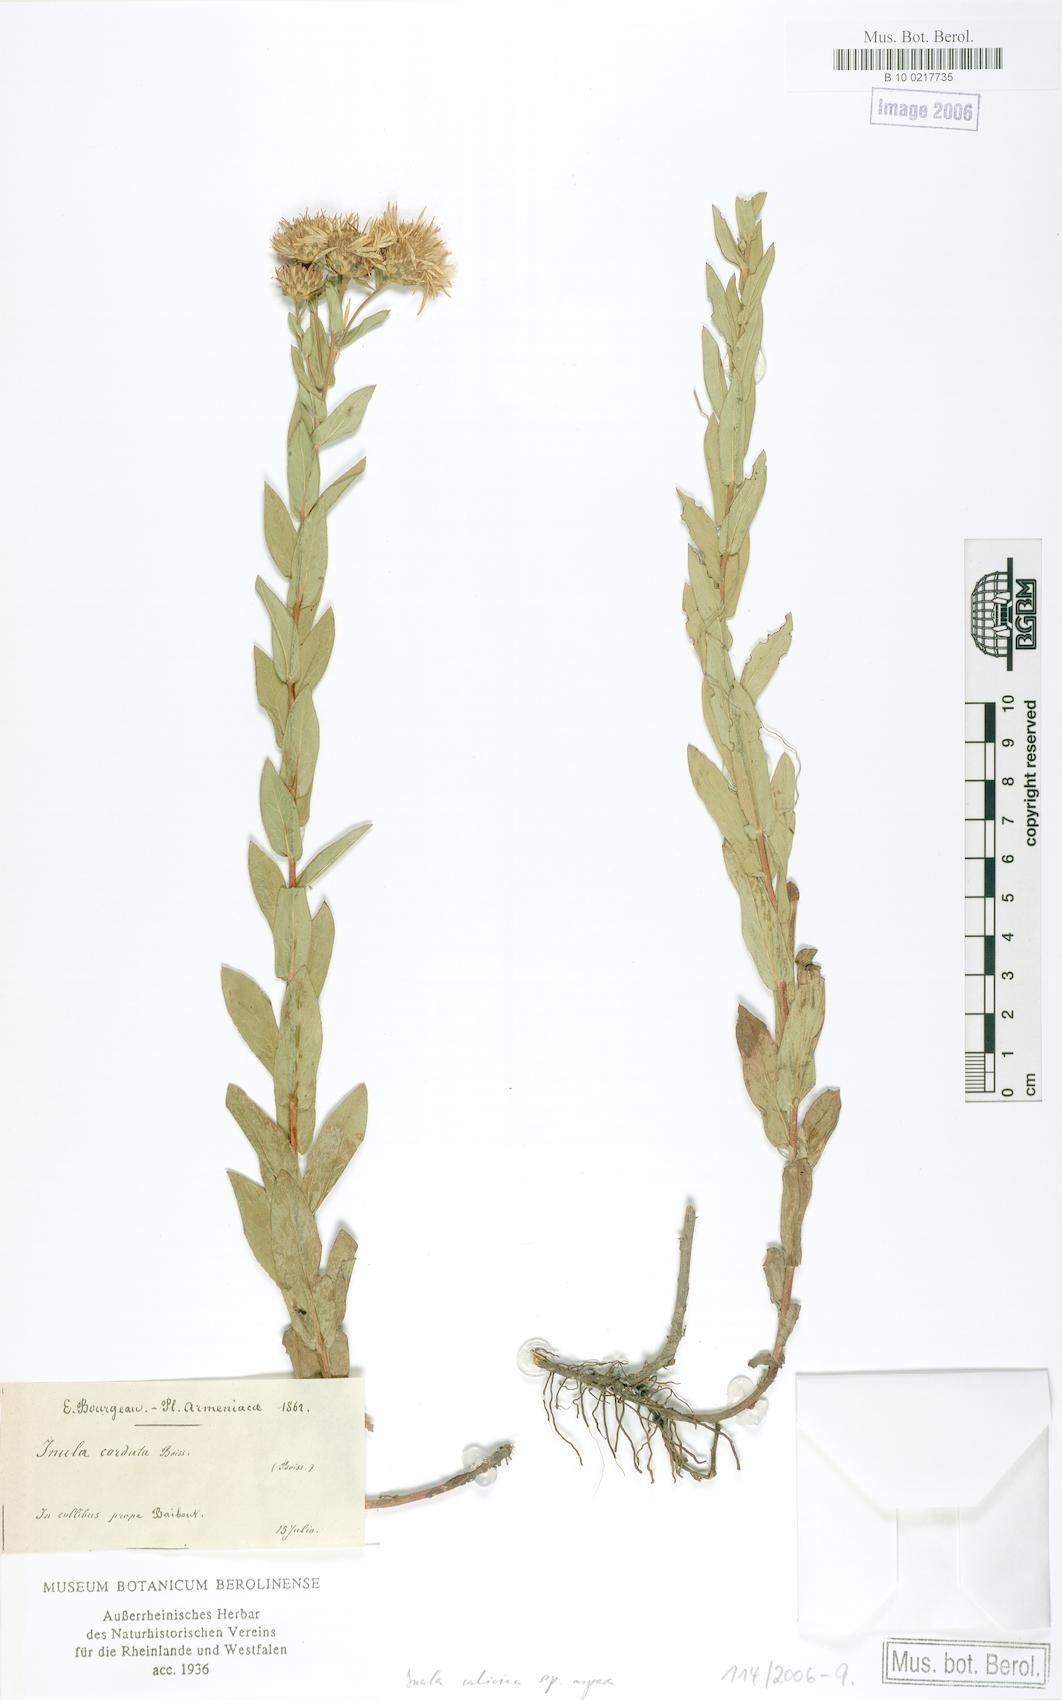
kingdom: Plantae
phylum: Tracheophyta
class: Magnoliopsida
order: Asterales
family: Asteraceae
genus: Pentanema
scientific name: Pentanema salicinum
